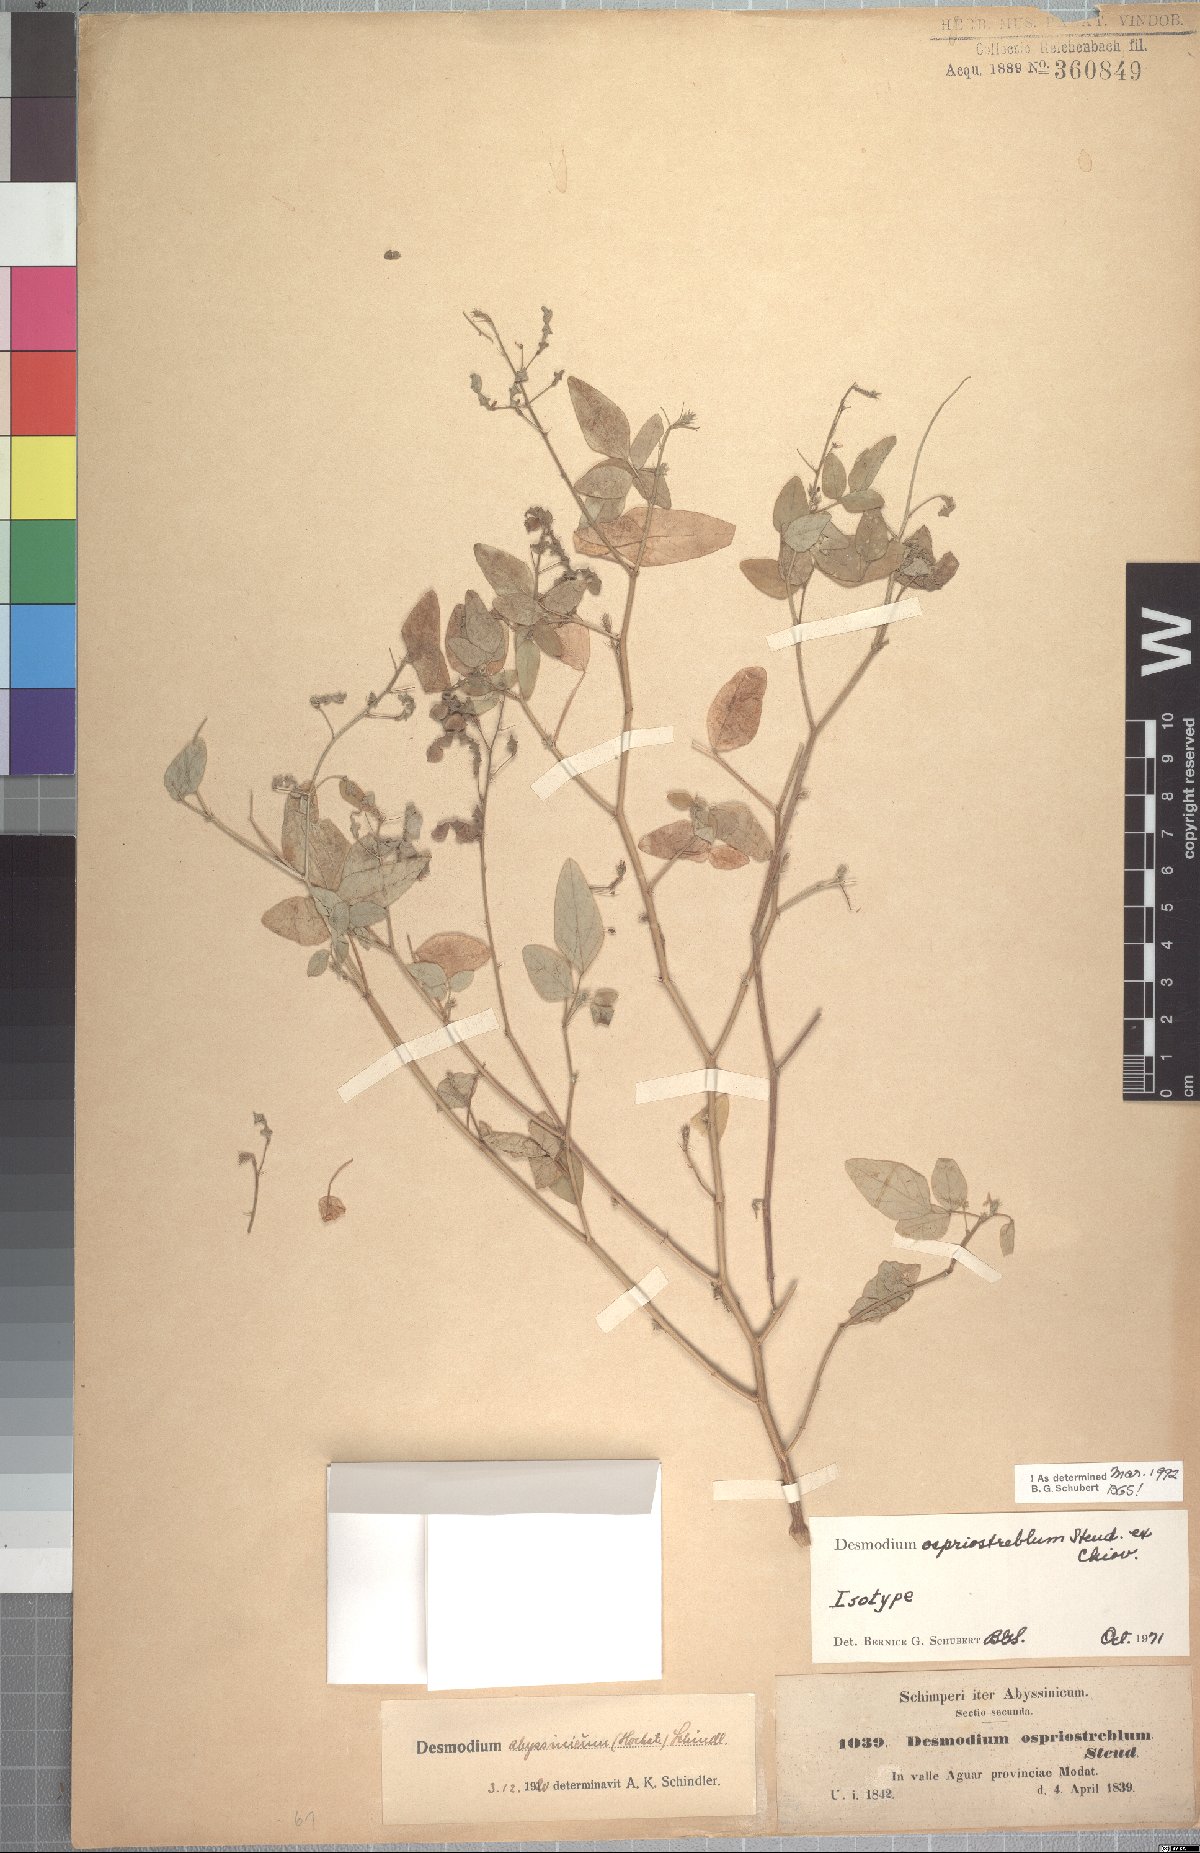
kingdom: Plantae
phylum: Tracheophyta
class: Magnoliopsida
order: Fabales
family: Fabaceae
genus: Desmodium
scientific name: Desmodium ospriostreblum
